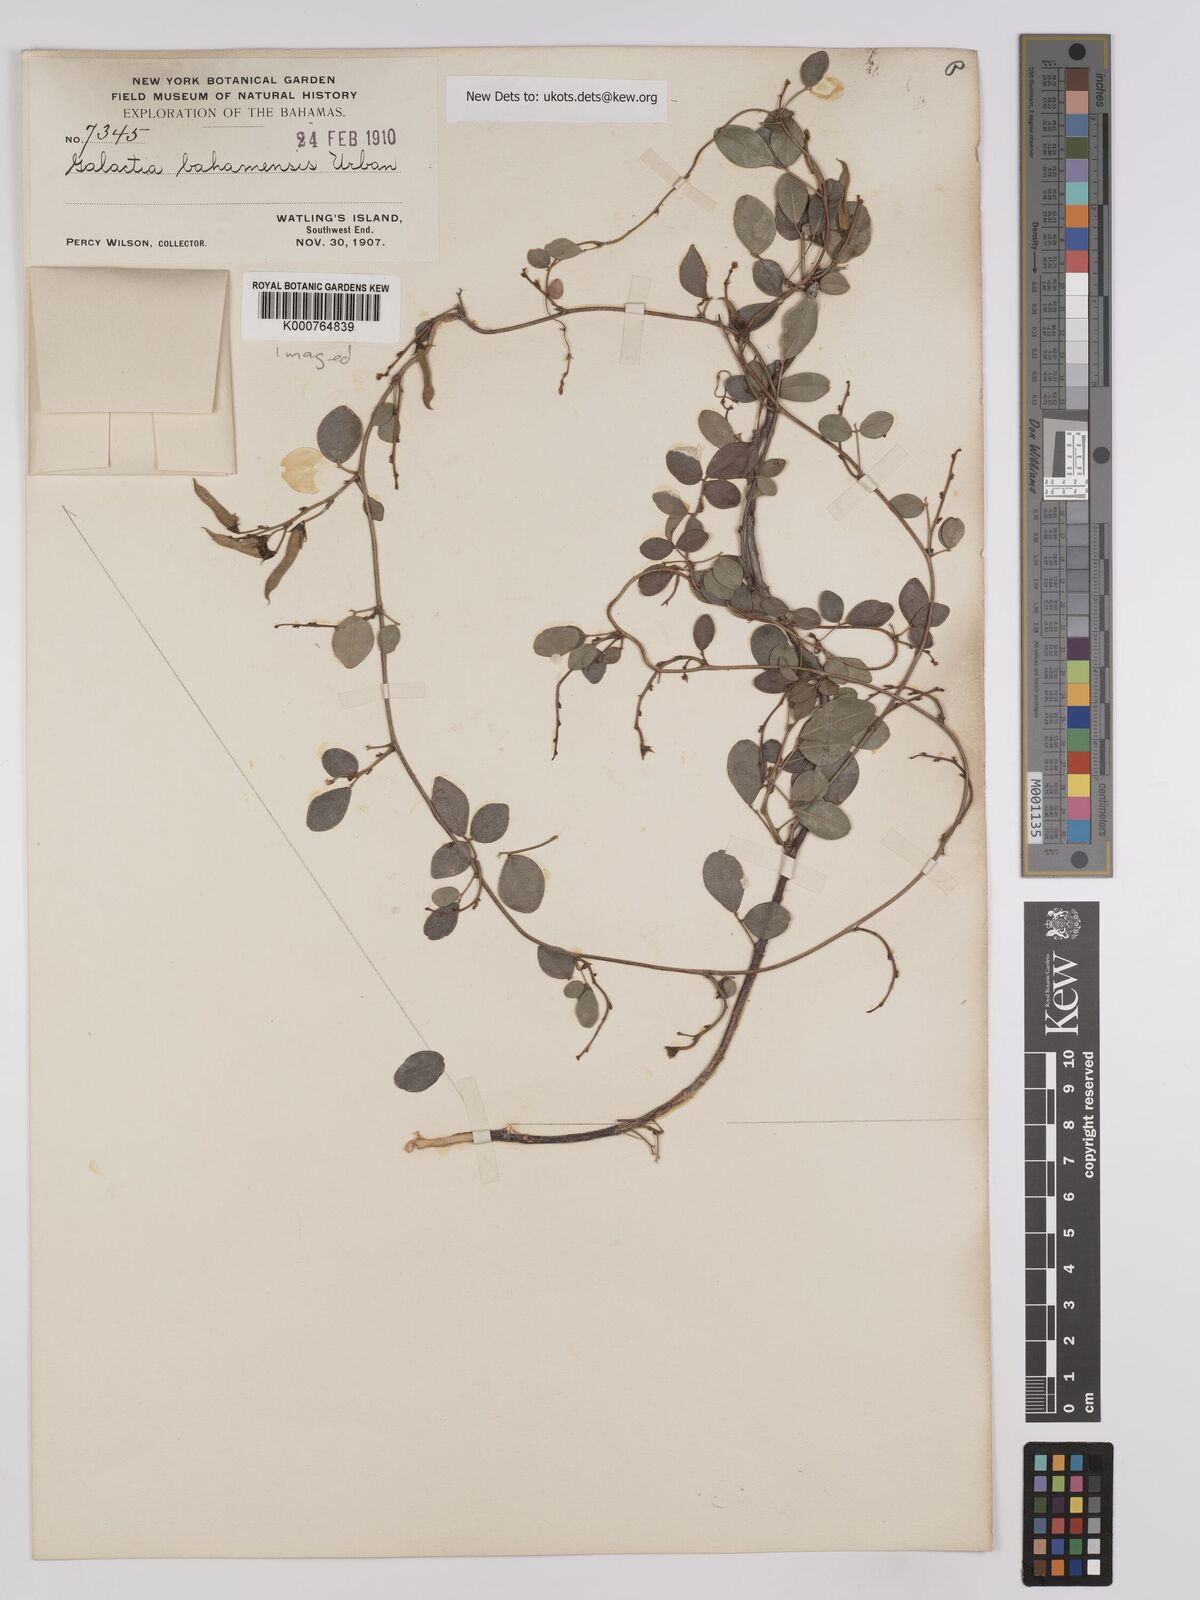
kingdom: Plantae
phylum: Tracheophyta
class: Magnoliopsida
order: Fabales
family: Fabaceae
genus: Galactia
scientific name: Galactia bahamensis
